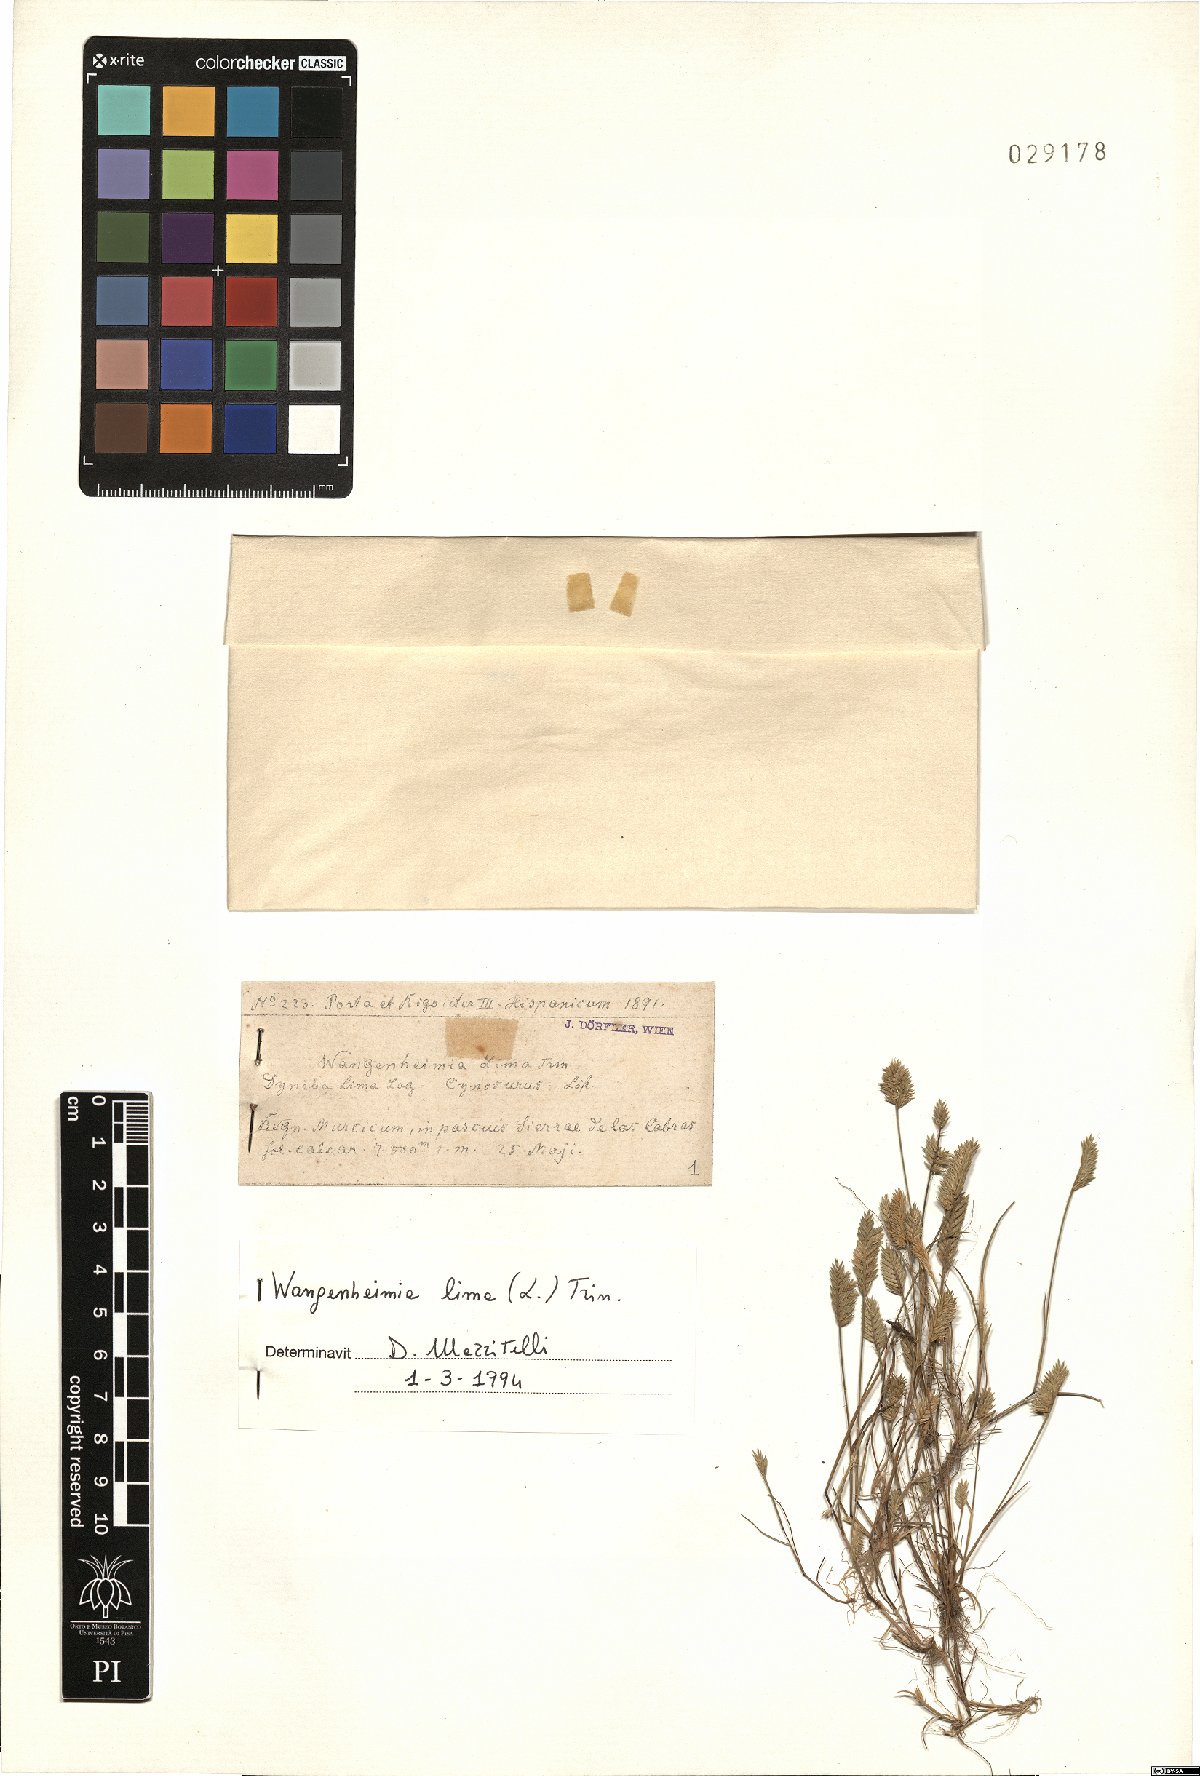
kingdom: Plantae
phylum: Tracheophyta
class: Liliopsida
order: Poales
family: Poaceae
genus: Wangenheimia
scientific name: Wangenheimia lima
